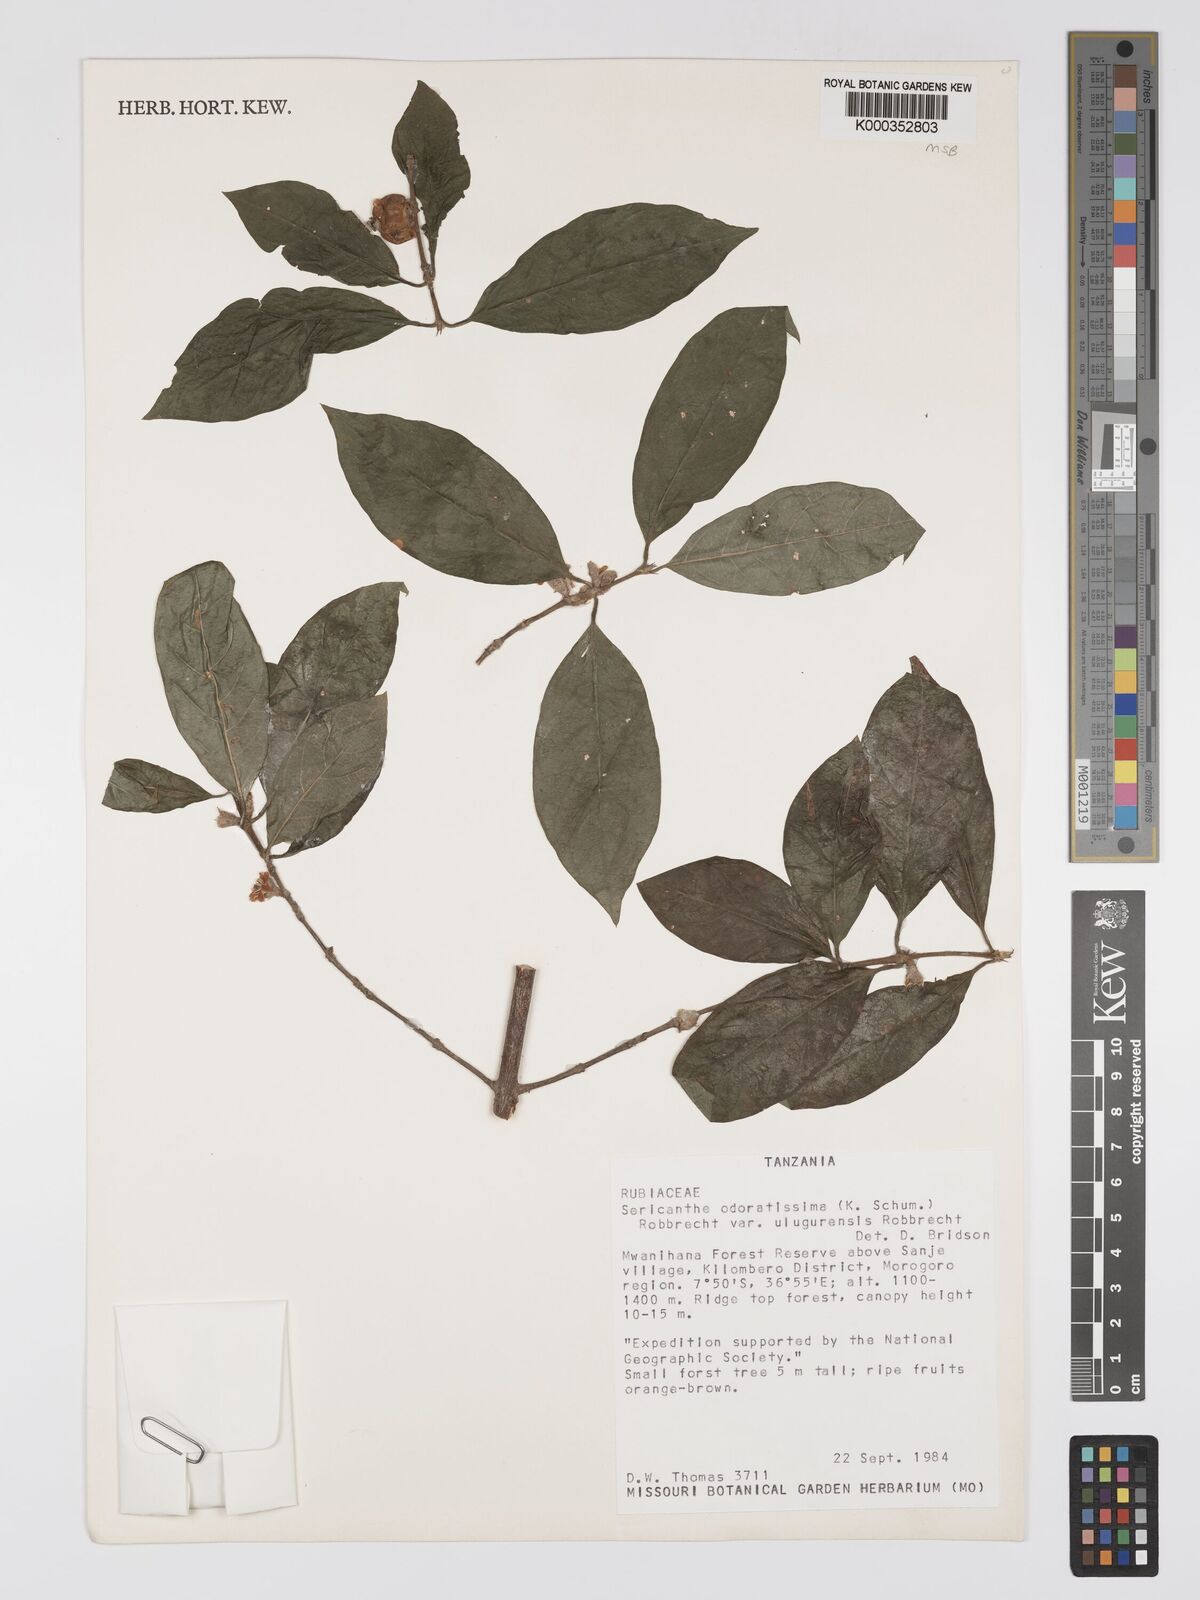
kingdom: Plantae
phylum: Tracheophyta
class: Magnoliopsida
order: Gentianales
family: Rubiaceae
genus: Sericanthe
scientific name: Sericanthe odoratissima
